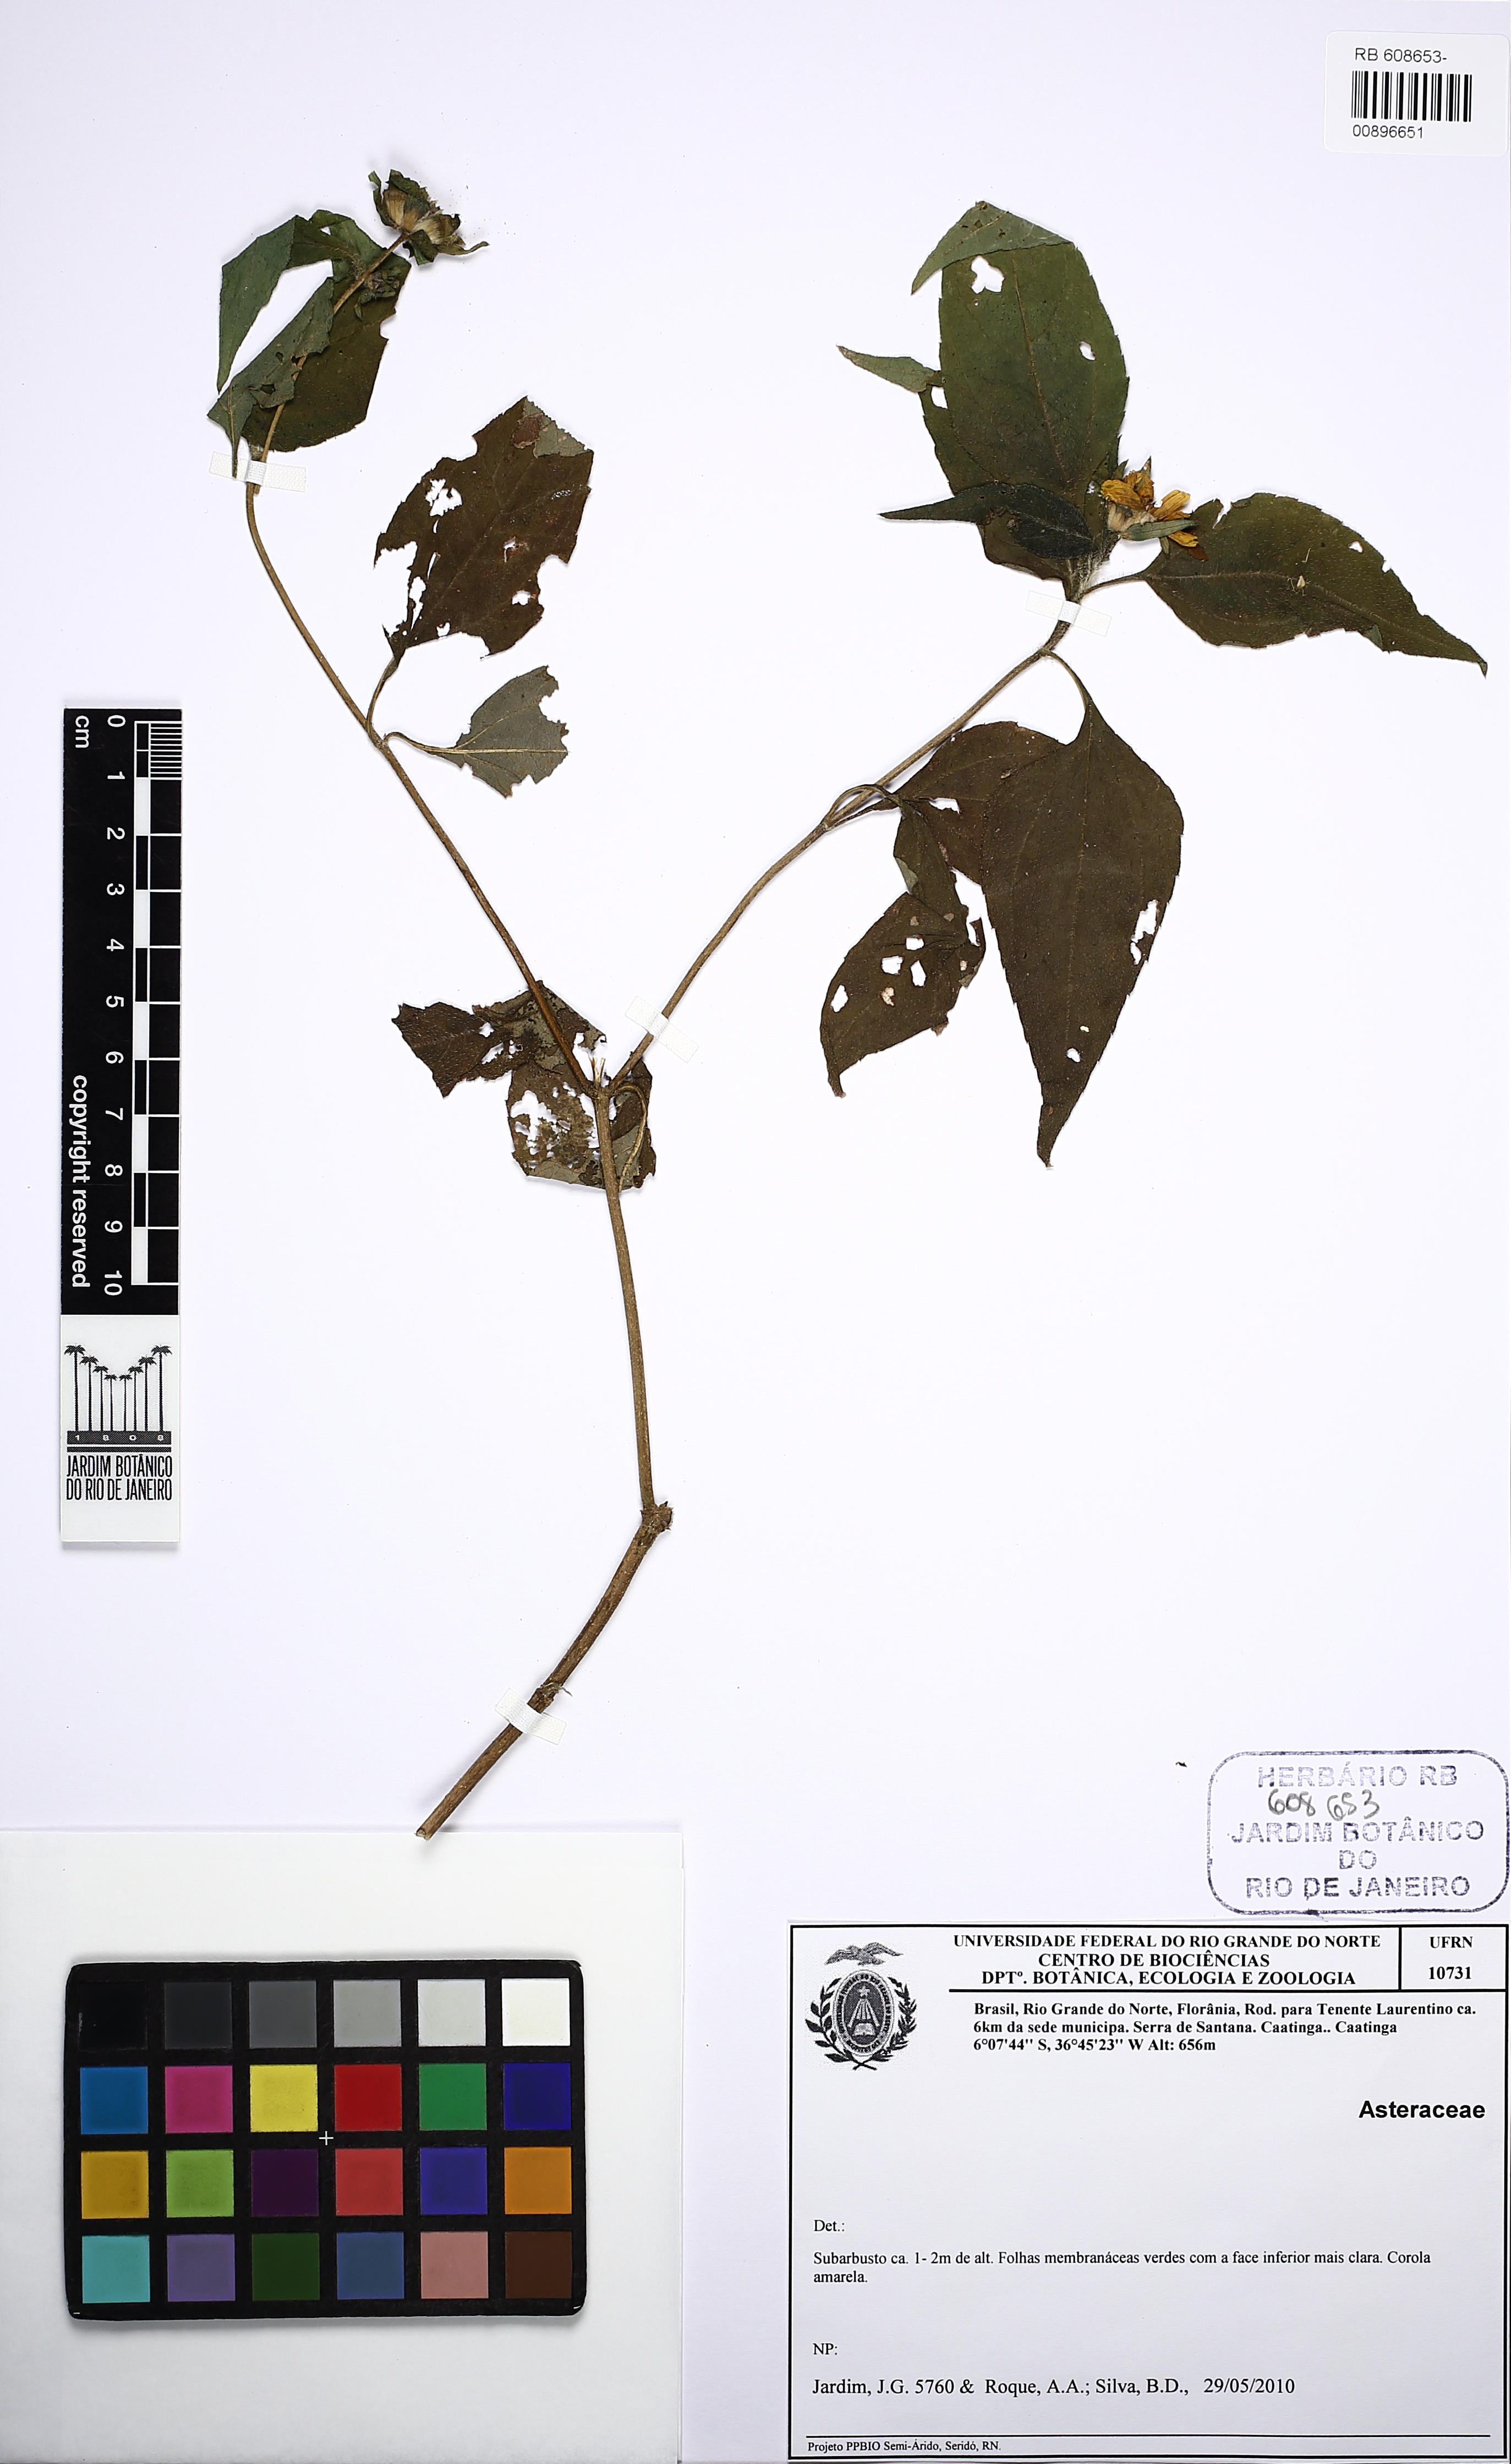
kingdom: Plantae
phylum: Tracheophyta
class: Magnoliopsida
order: Asterales
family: Asteraceae
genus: Wedelia
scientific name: Wedelia
